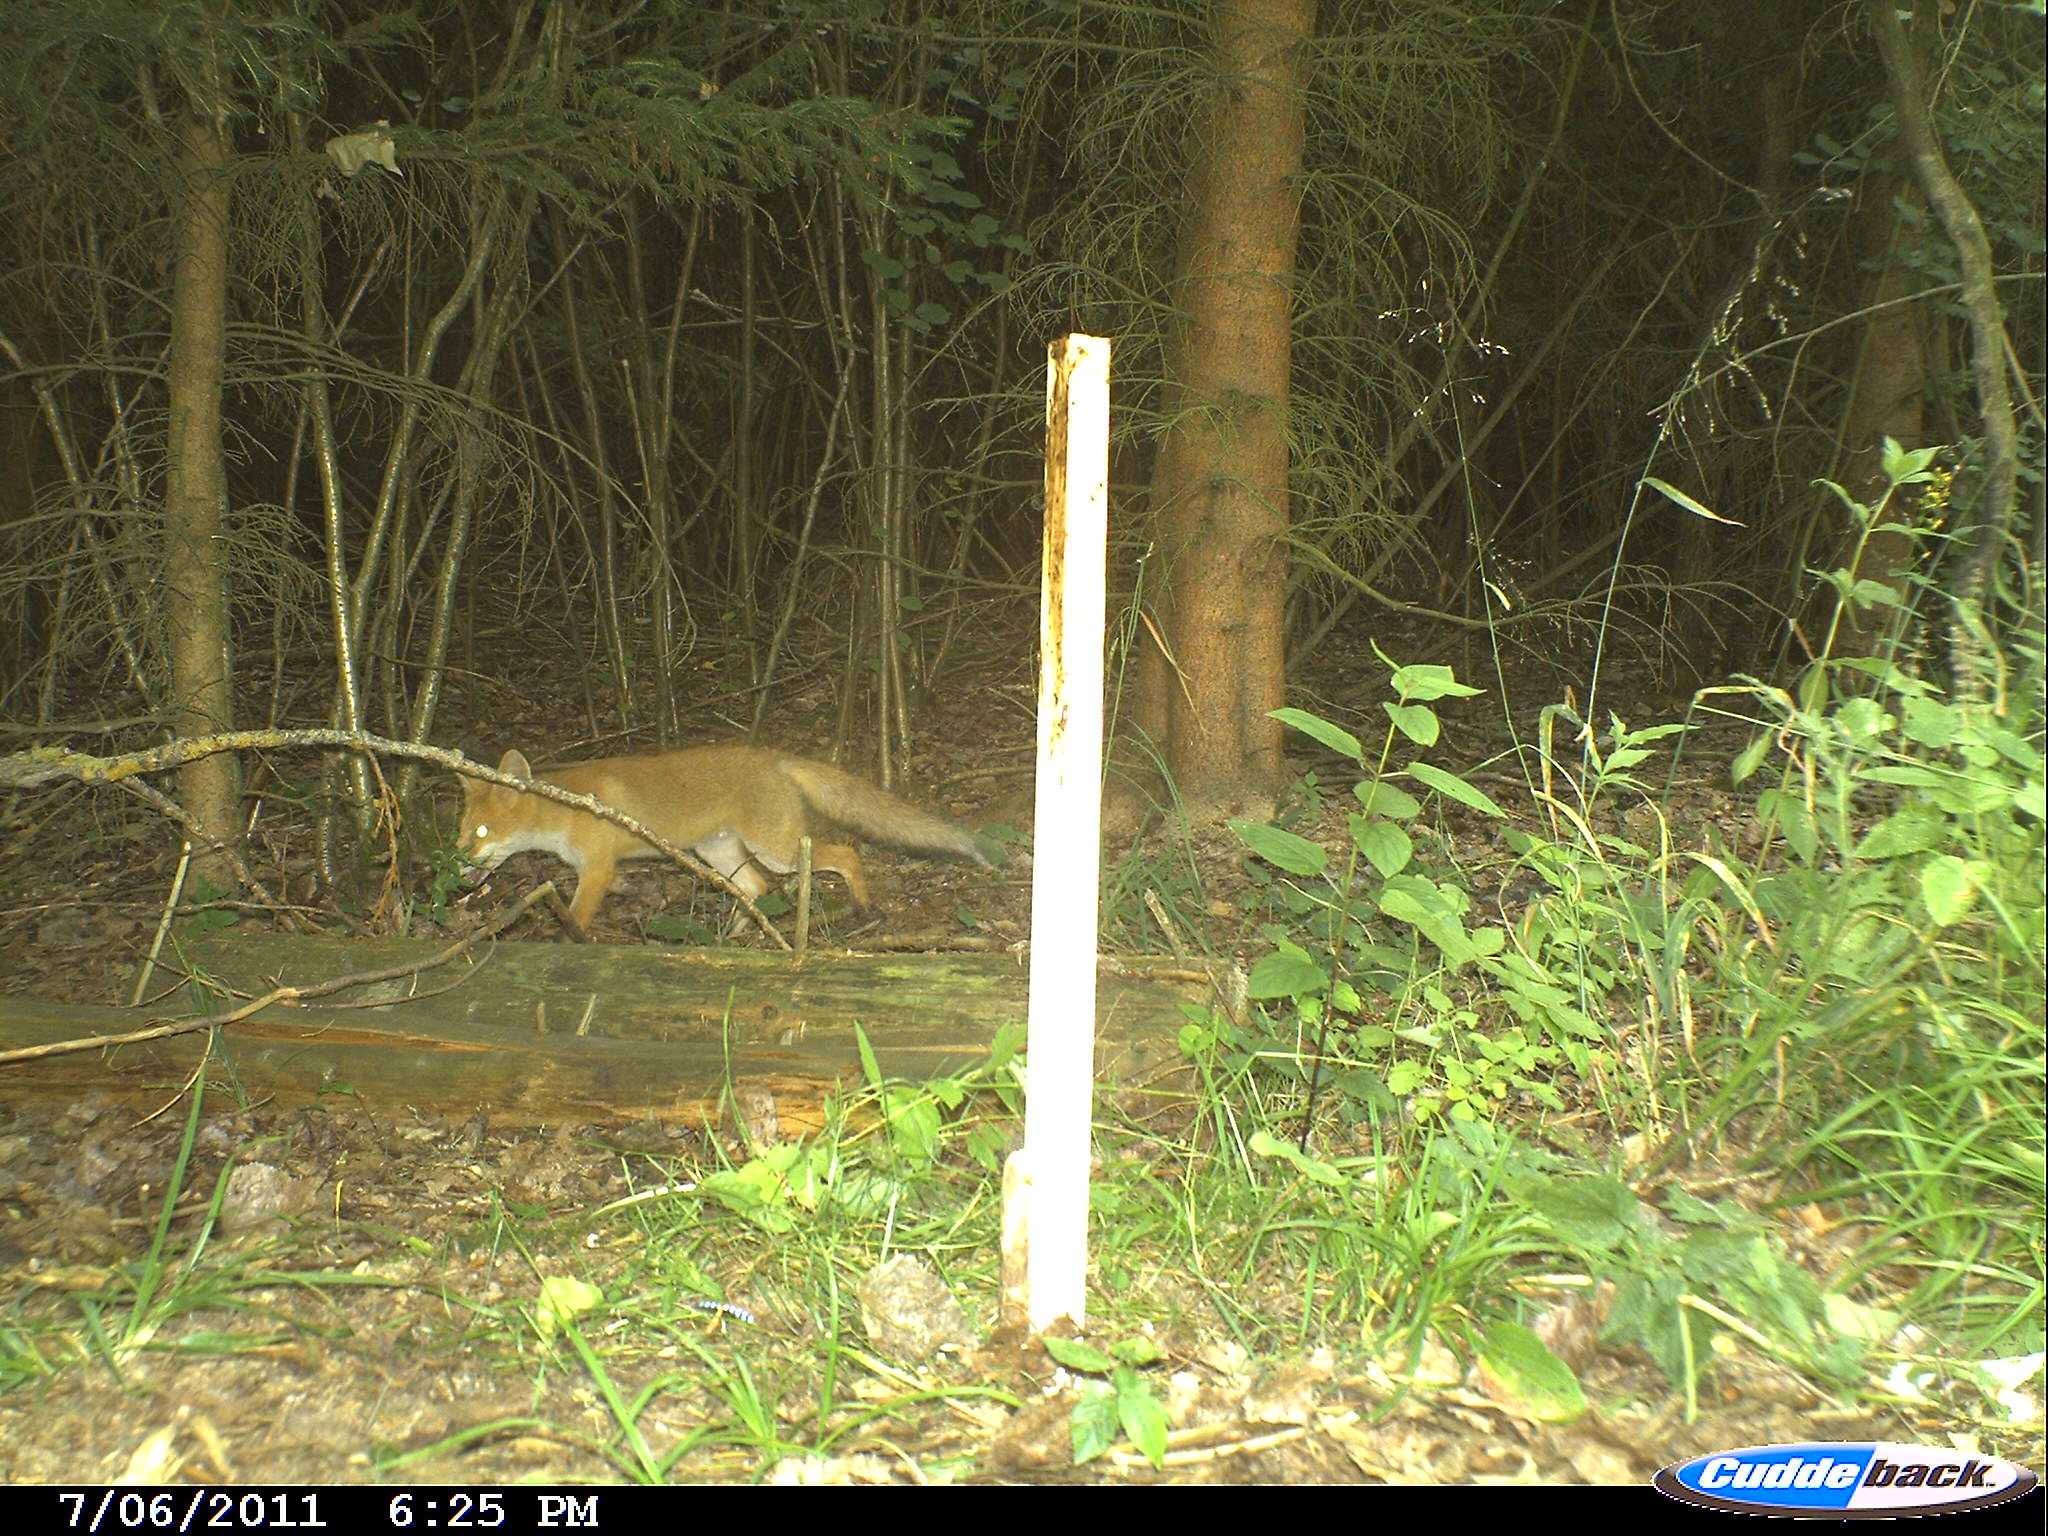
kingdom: Animalia
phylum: Chordata
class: Mammalia
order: Carnivora
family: Canidae
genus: Vulpes
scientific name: Vulpes vulpes
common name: Red fox
